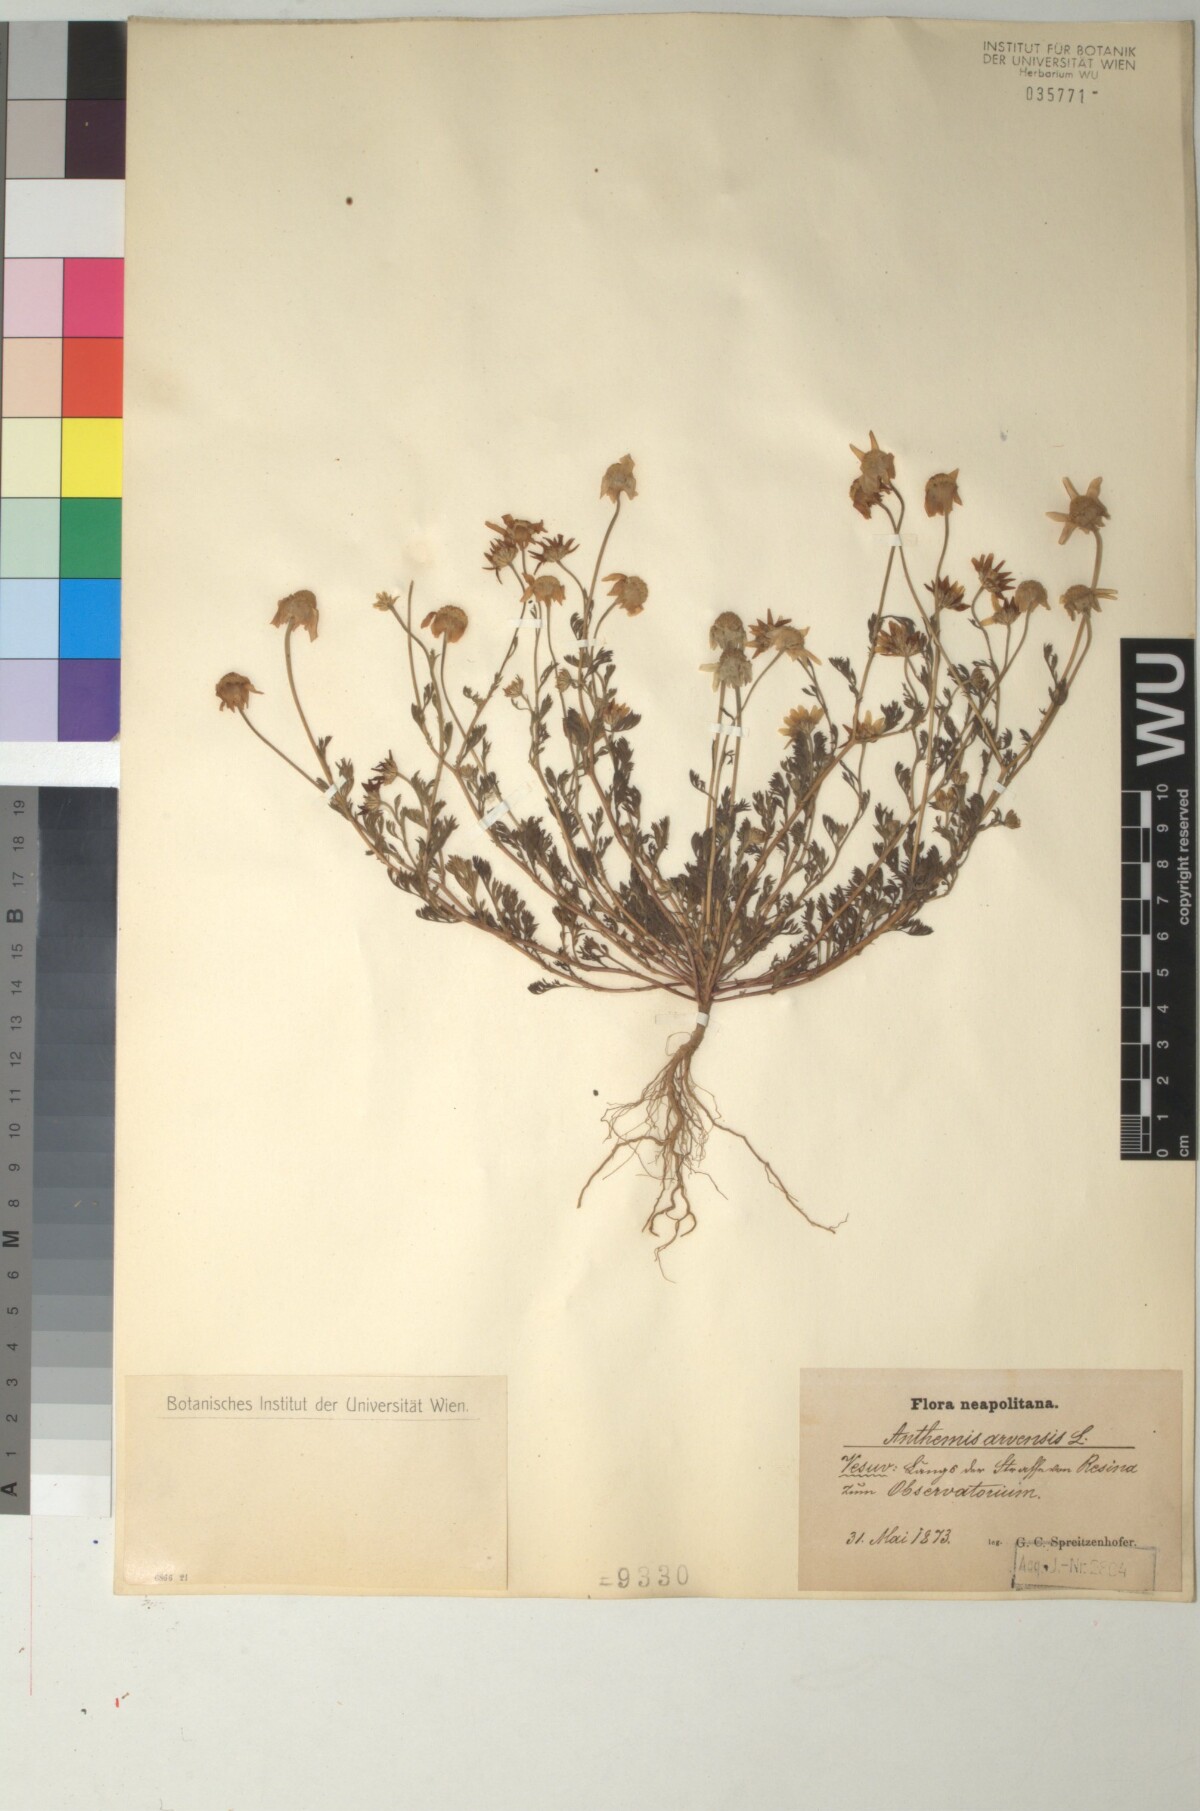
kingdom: Plantae
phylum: Tracheophyta
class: Magnoliopsida
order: Asterales
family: Asteraceae
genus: Anthemis
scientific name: Anthemis arvensis
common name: Corn chamomile
